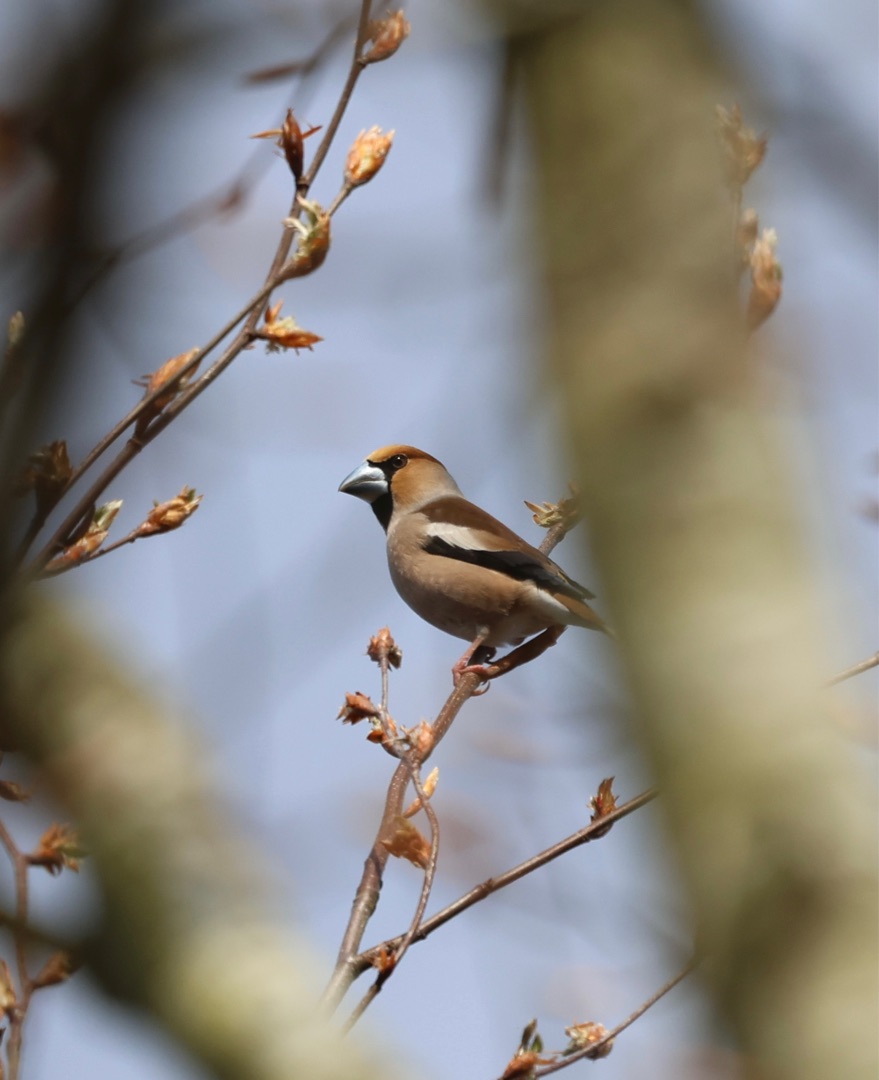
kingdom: Animalia
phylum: Chordata
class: Aves
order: Passeriformes
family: Fringillidae
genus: Coccothraustes
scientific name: Coccothraustes coccothraustes
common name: Kernebider
